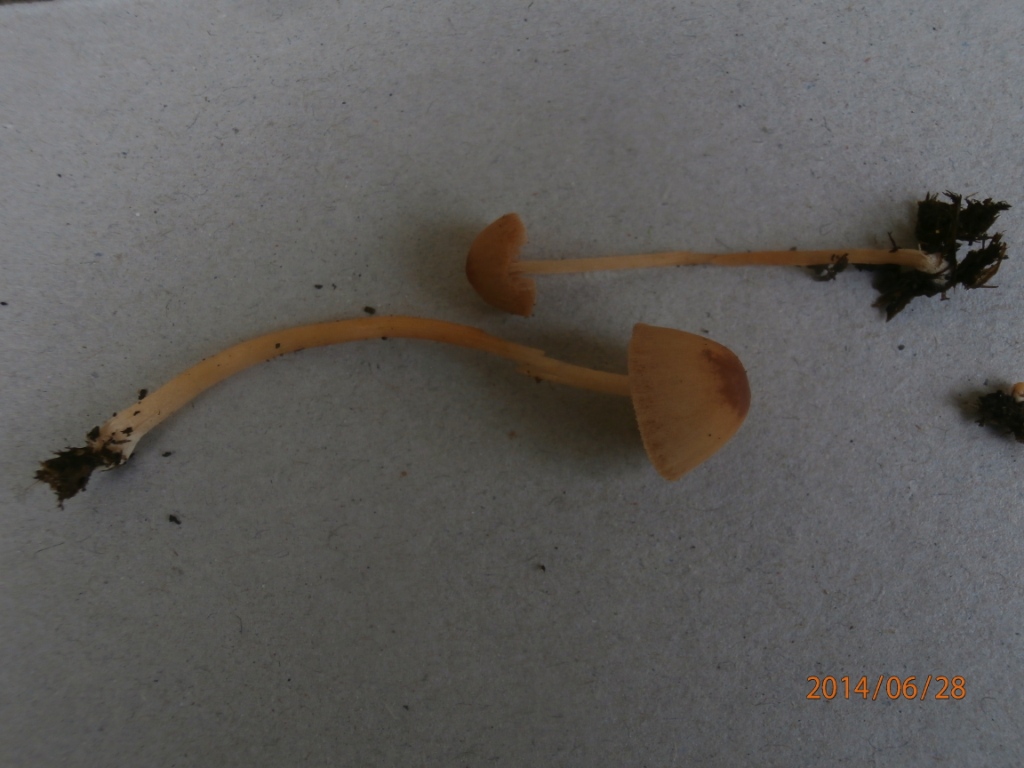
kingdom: Fungi
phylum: Basidiomycota
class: Agaricomycetes
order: Agaricales
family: Bolbitiaceae
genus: Conocybe
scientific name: Conocybe rickenii
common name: møg-keglehat
